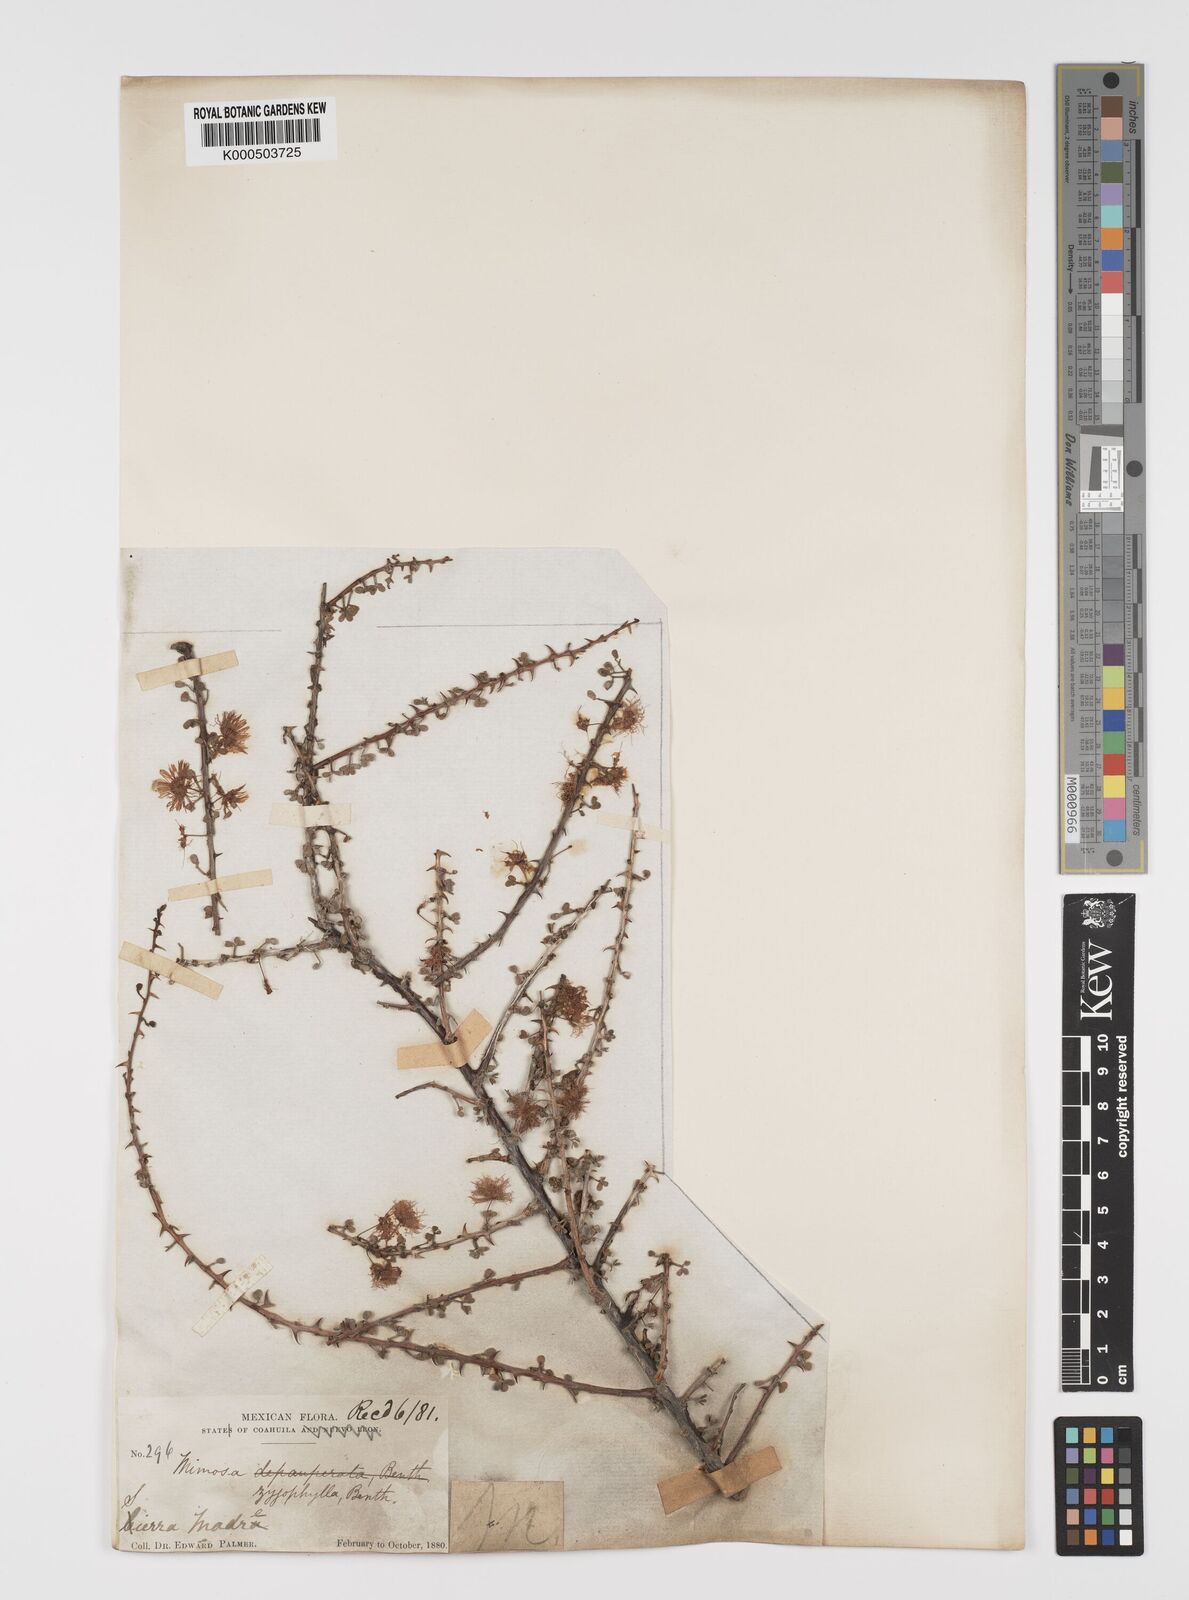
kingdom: Plantae
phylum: Tracheophyta
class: Magnoliopsida
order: Fabales
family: Fabaceae
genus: Mimosa
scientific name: Mimosa zygophylla
